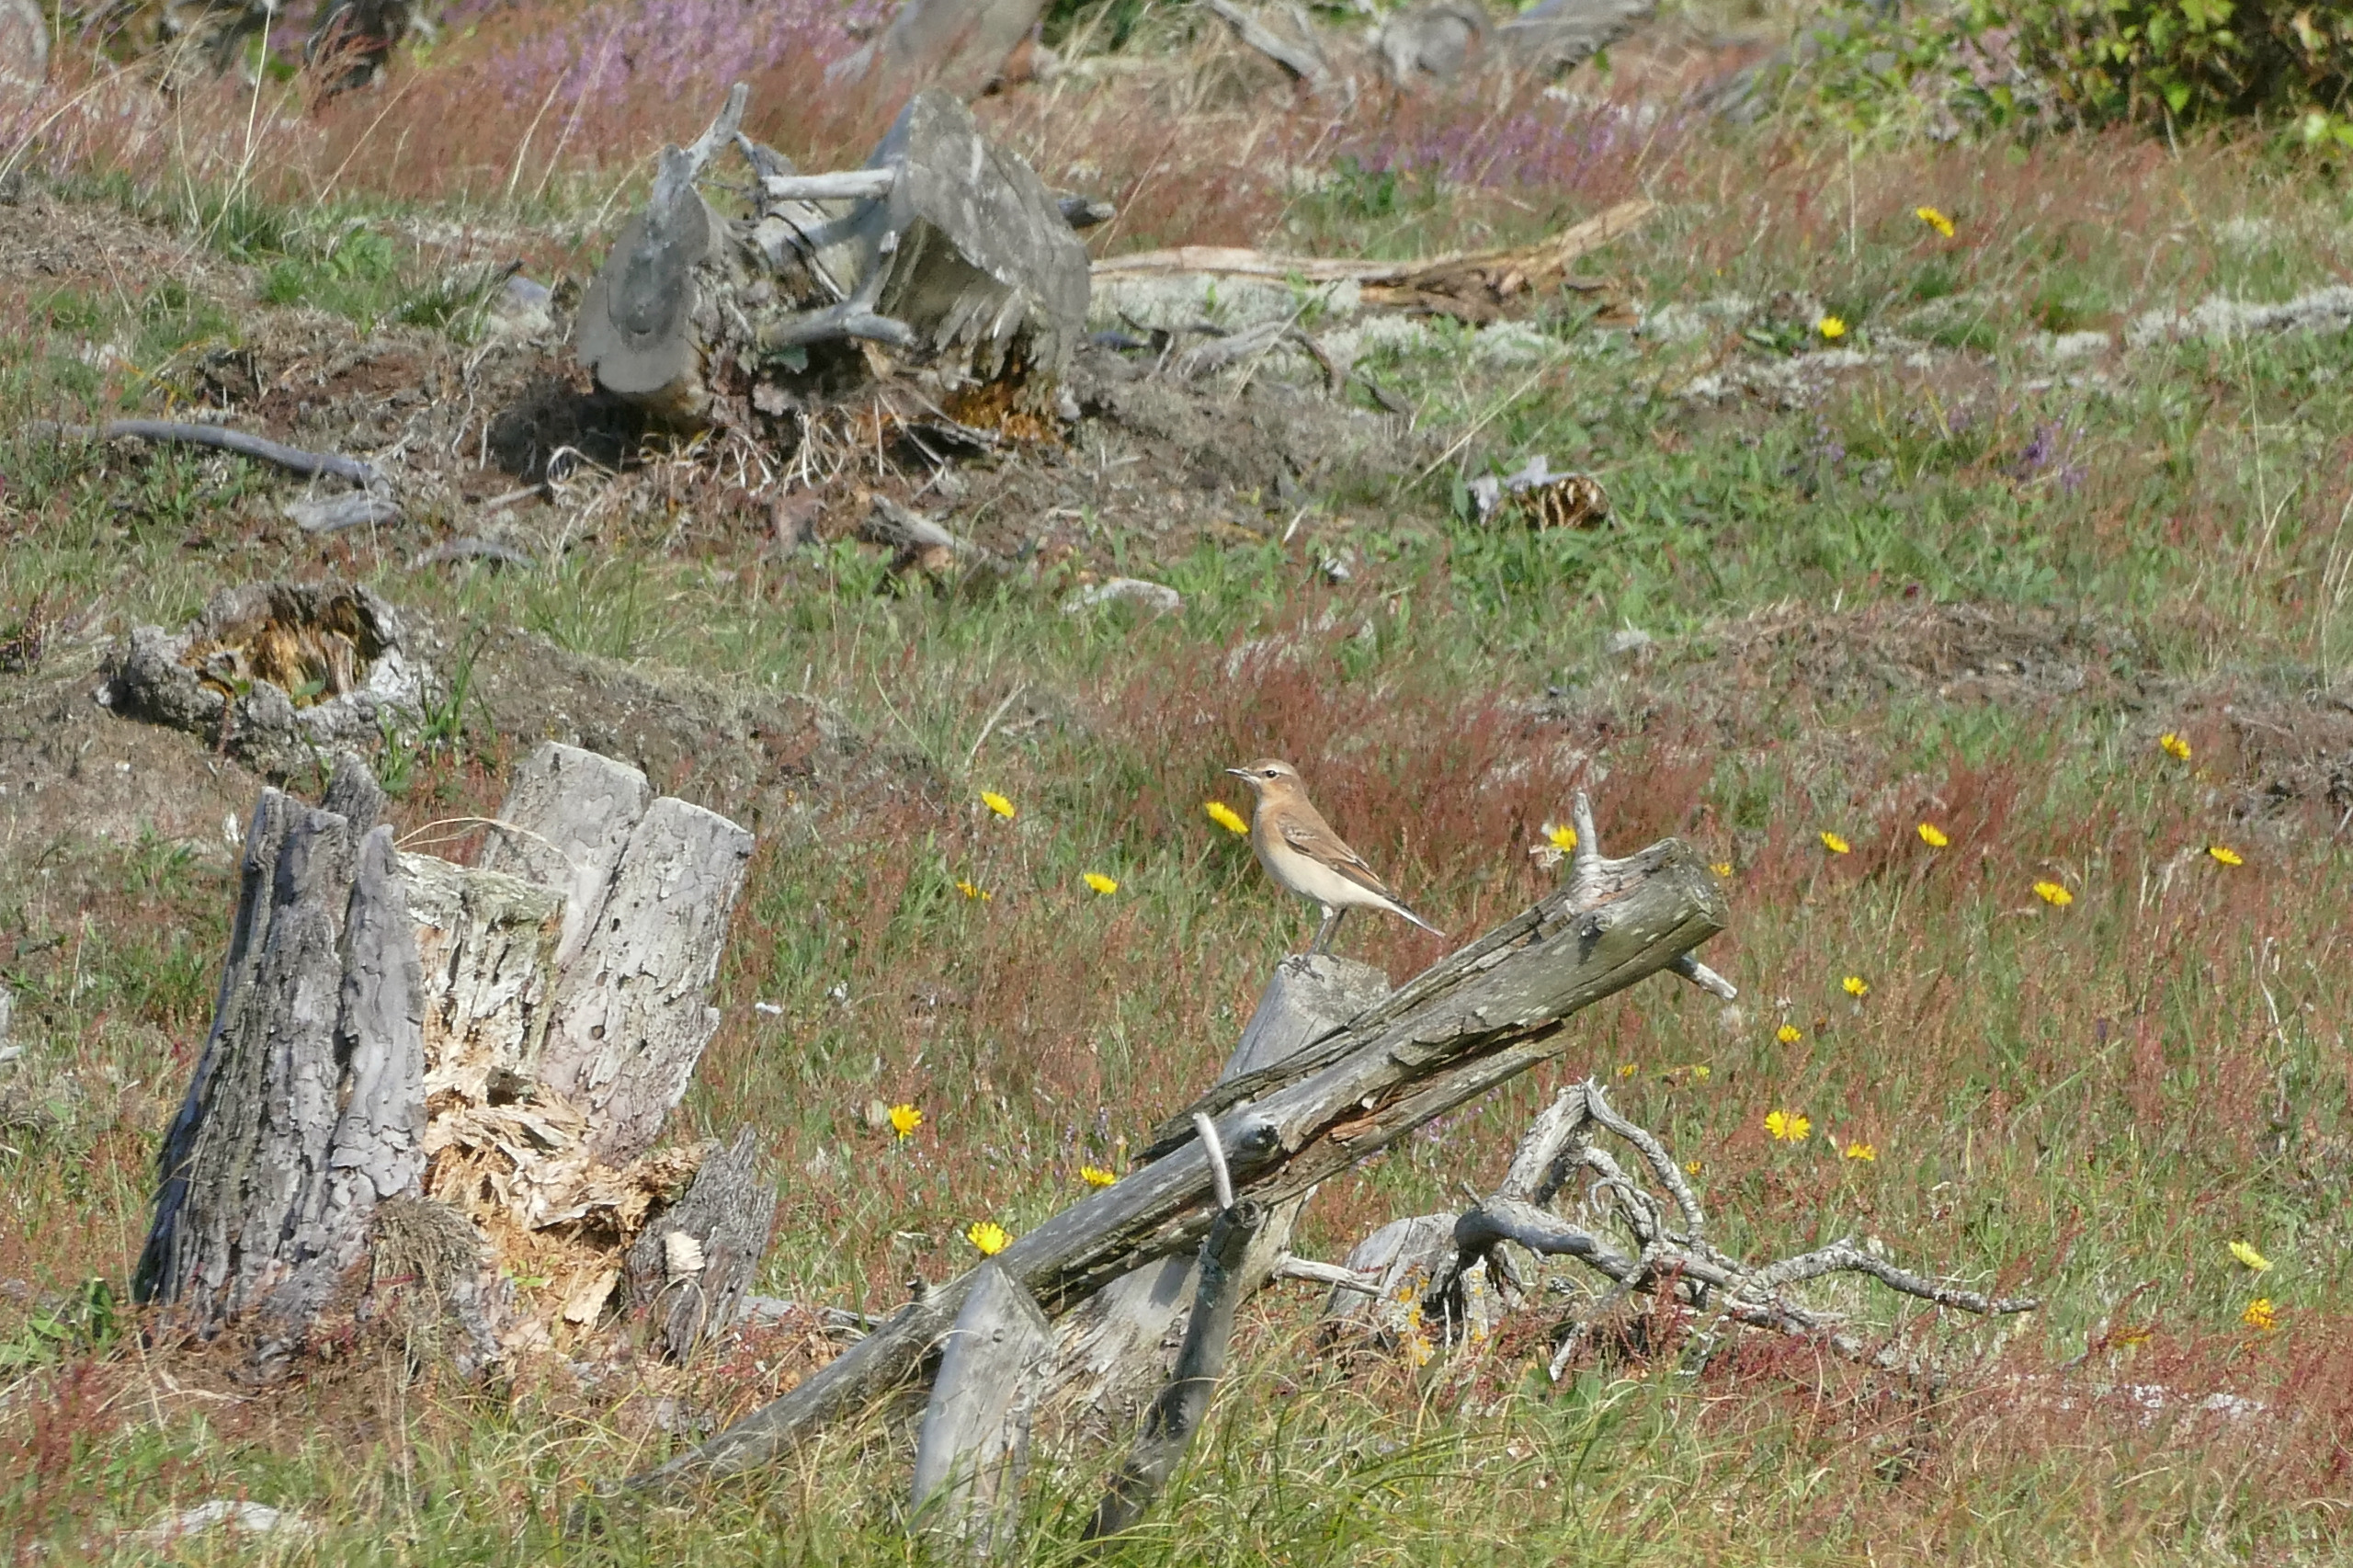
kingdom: Animalia
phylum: Chordata
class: Aves
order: Passeriformes
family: Muscicapidae
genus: Oenanthe
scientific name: Oenanthe oenanthe
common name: Stenpikker
